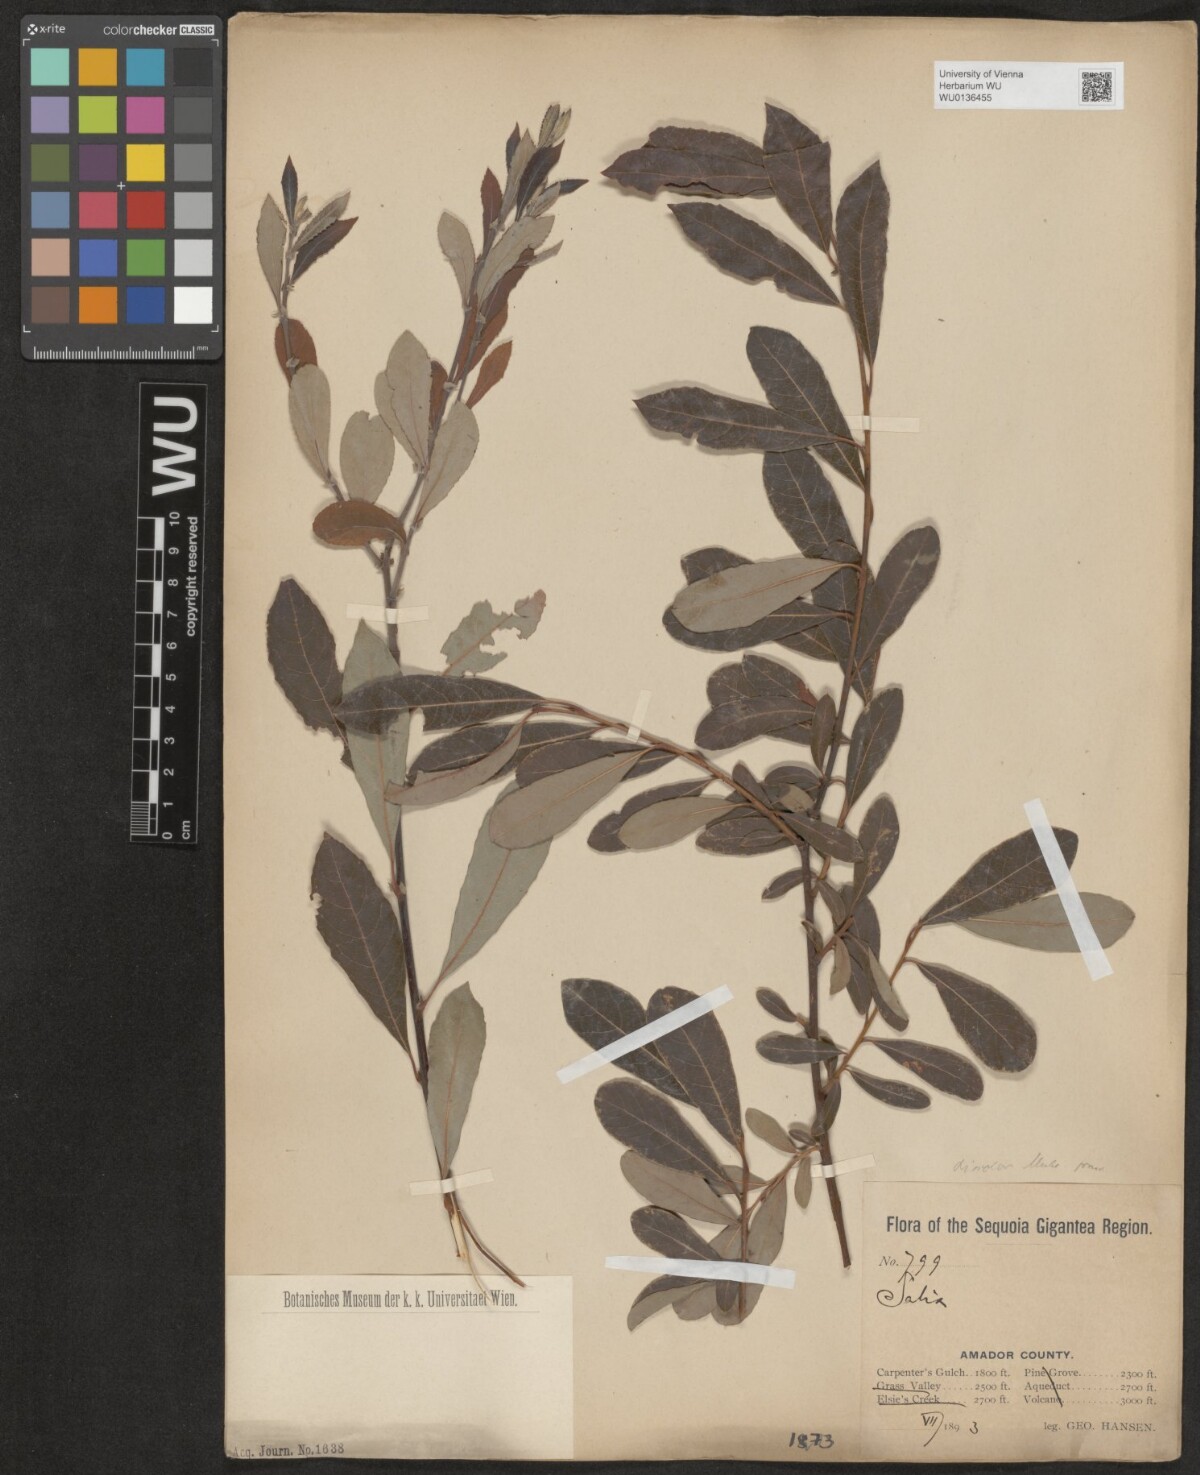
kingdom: Plantae
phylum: Tracheophyta
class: Magnoliopsida
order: Malpighiales
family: Salicaceae
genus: Salix
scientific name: Salix discolor
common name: Glaucous willow
